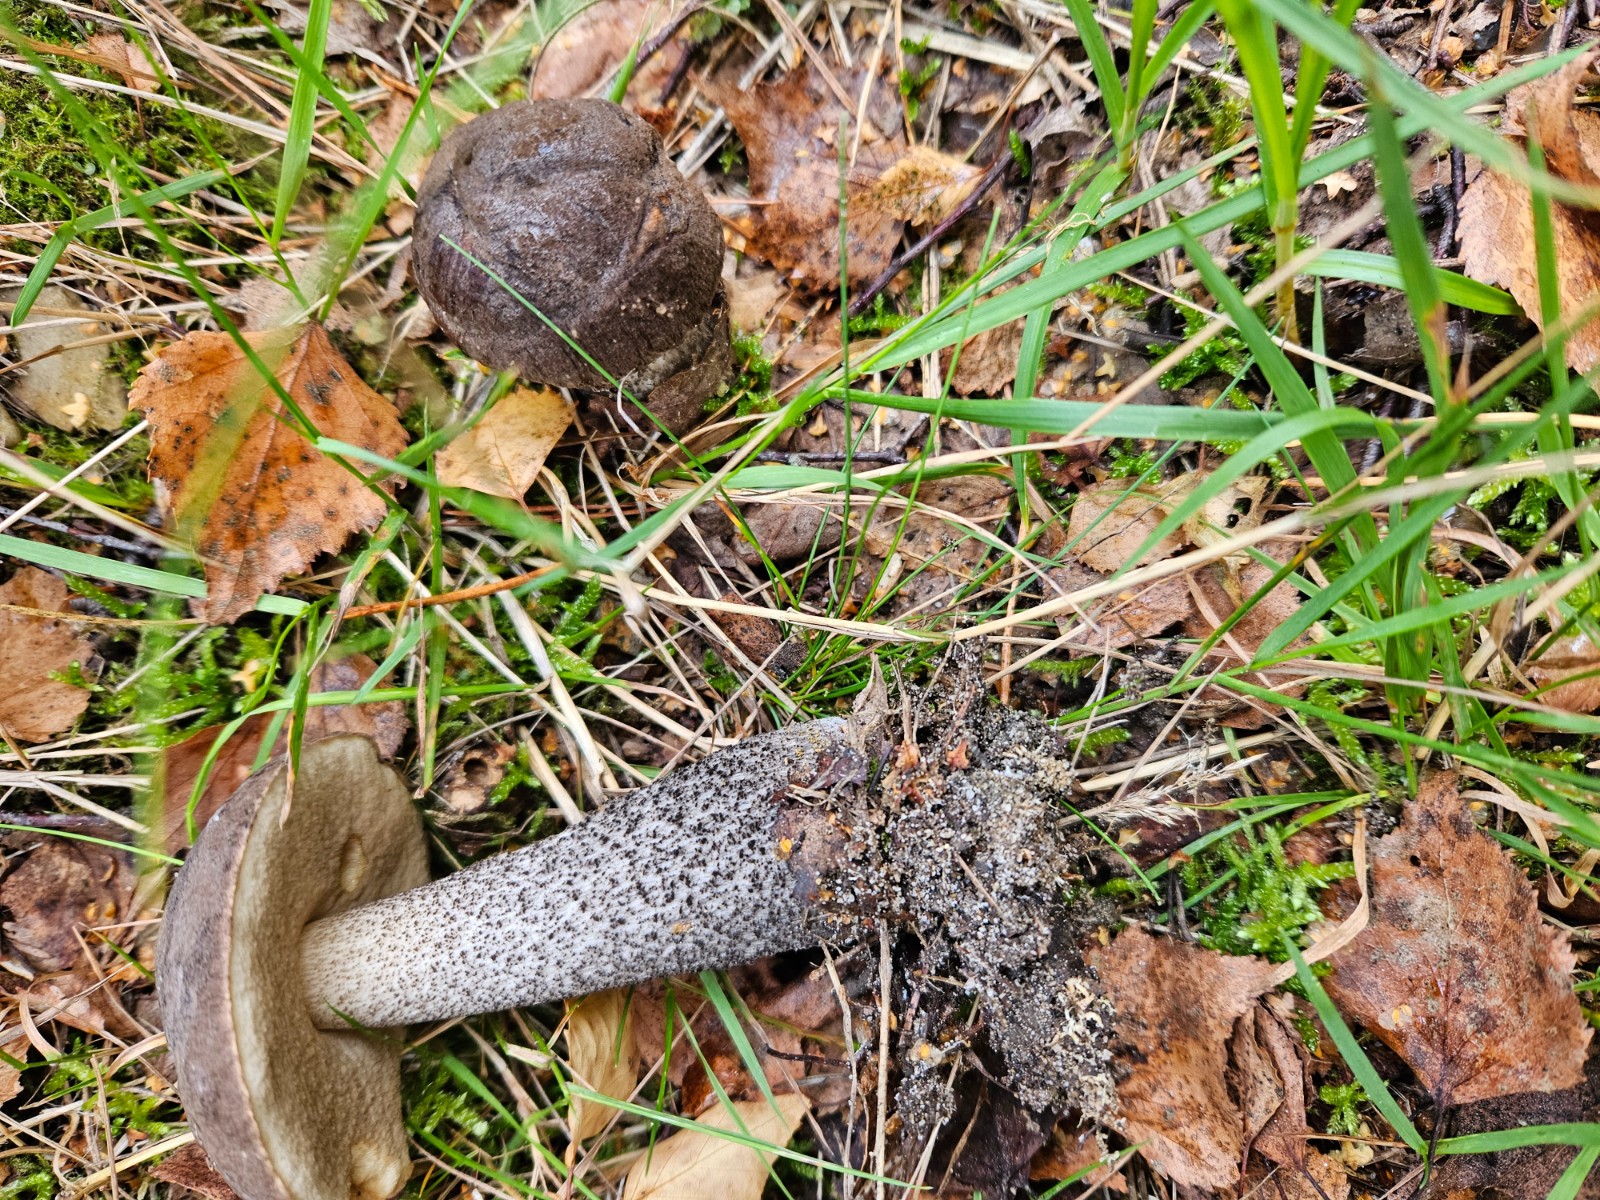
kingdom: Fungi
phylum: Basidiomycota
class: Agaricomycetes
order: Boletales
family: Boletaceae
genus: Leccinum
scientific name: Leccinum melaneum
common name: mørk skælrørhat
